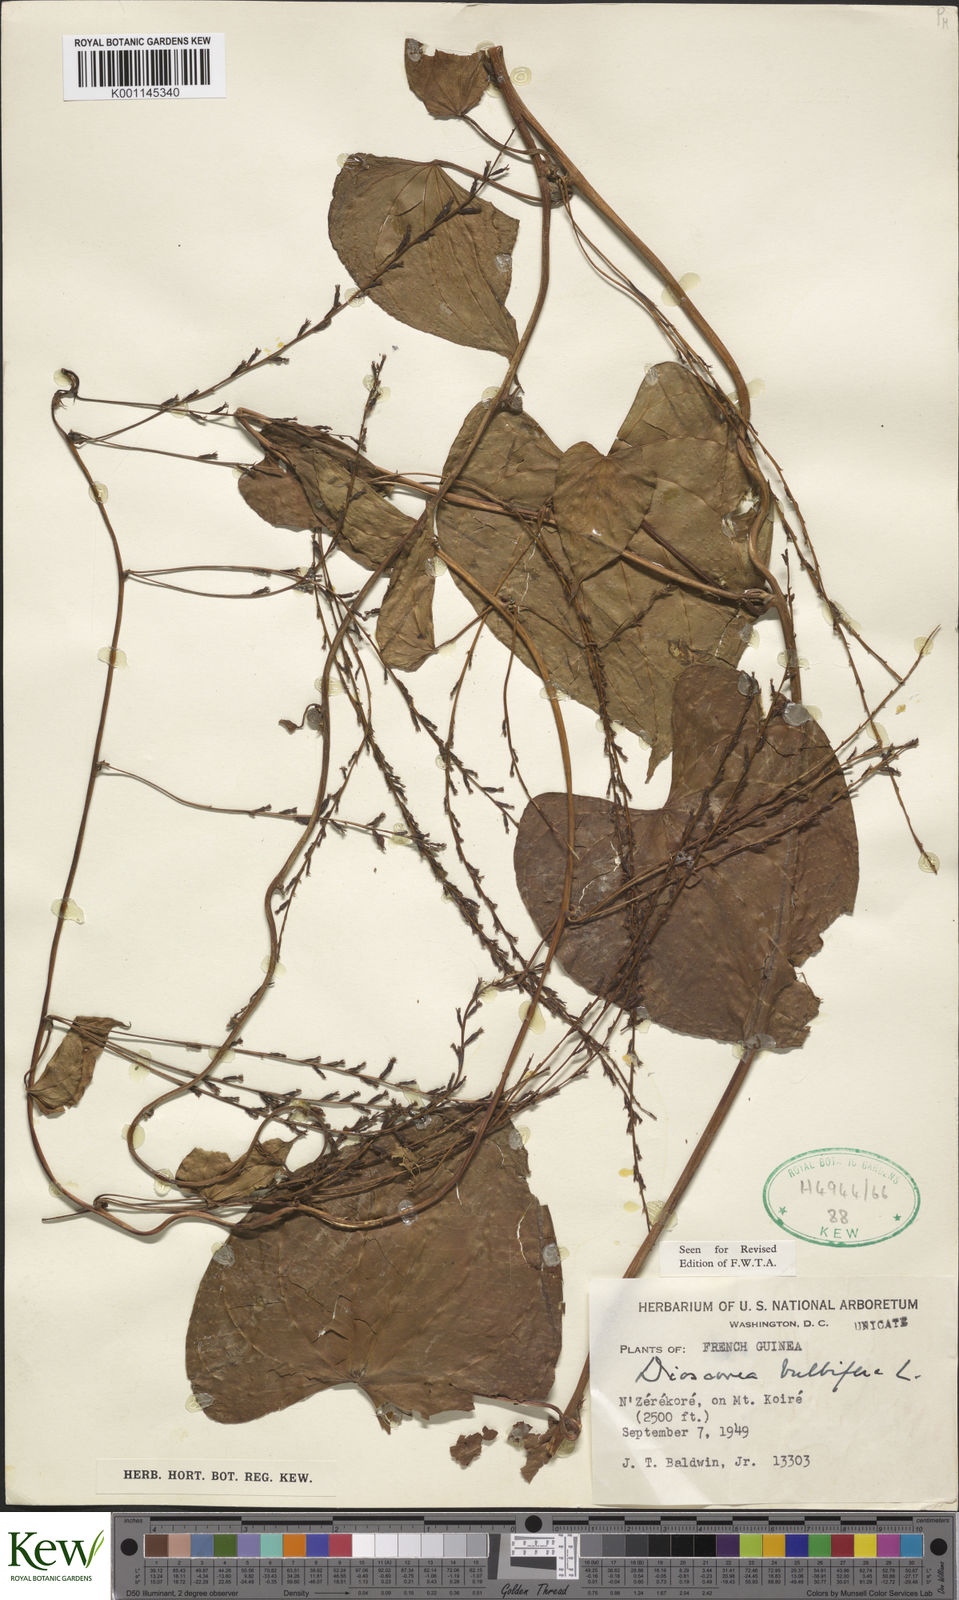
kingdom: Plantae
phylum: Tracheophyta
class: Liliopsida
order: Dioscoreales
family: Dioscoreaceae
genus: Dioscorea
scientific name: Dioscorea bulbifera
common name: Air yam
